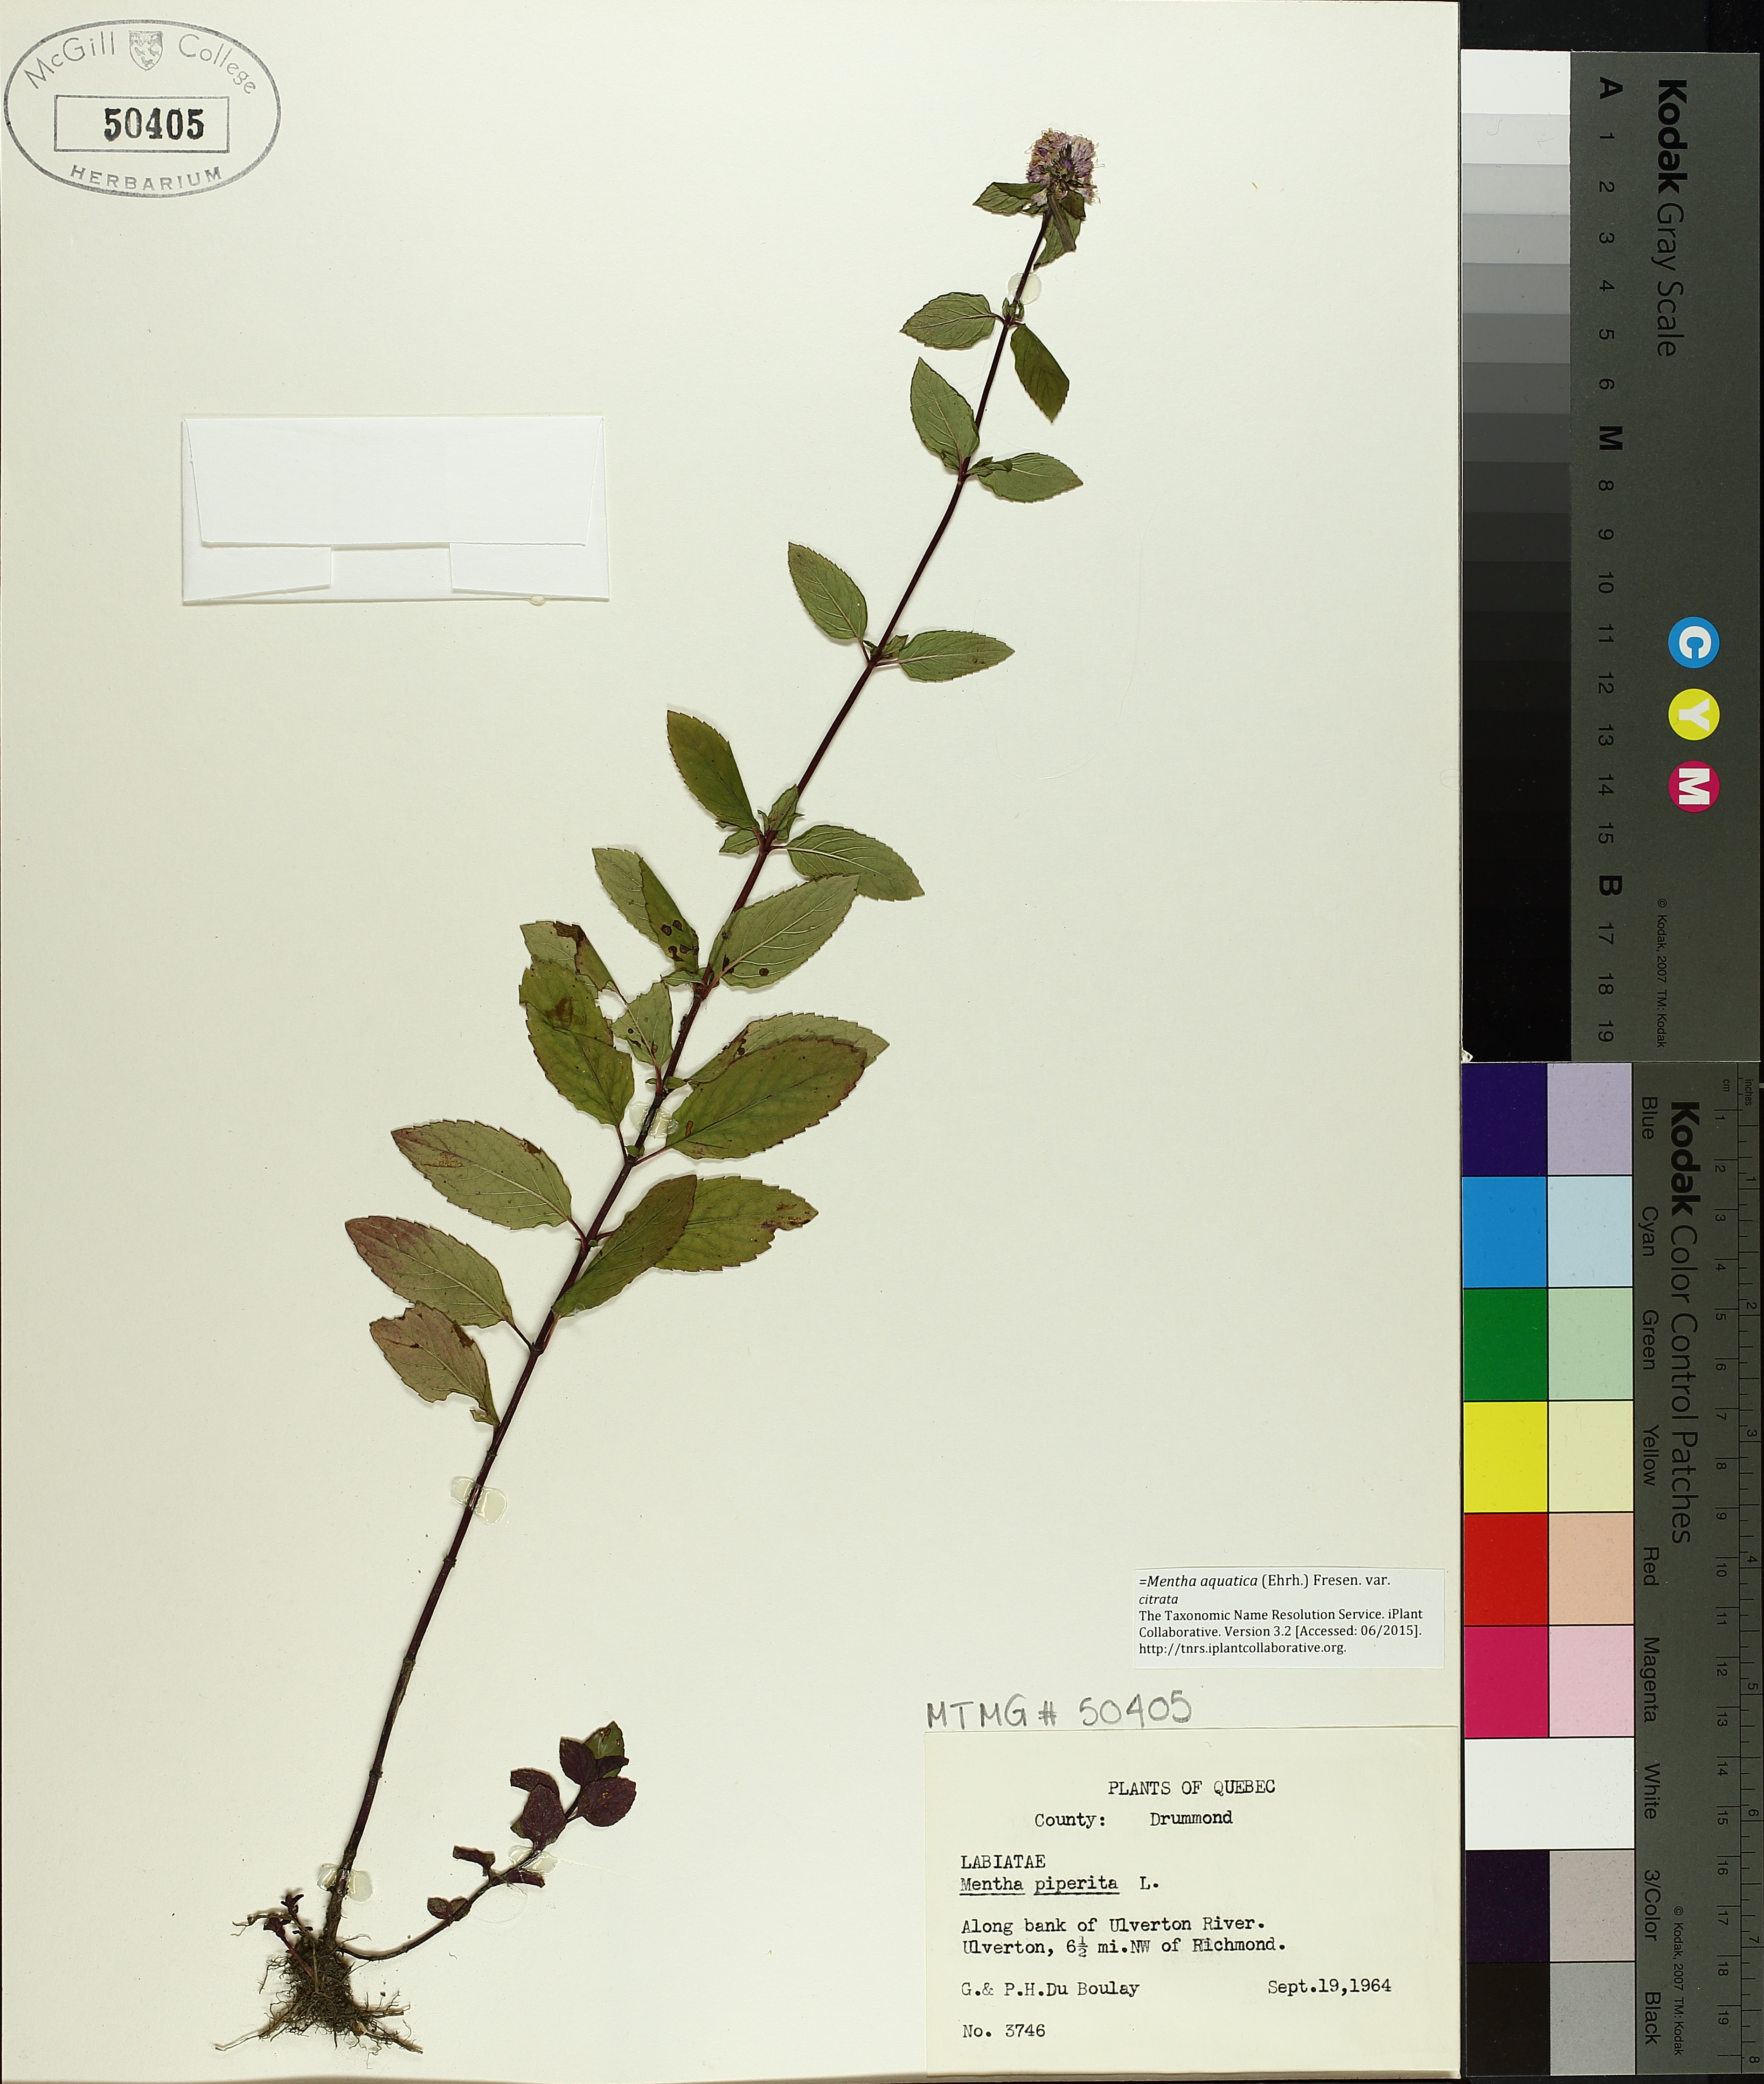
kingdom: Plantae
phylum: Tracheophyta
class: Magnoliopsida
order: Lamiales
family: Lamiaceae
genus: Mentha
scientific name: Mentha piperita
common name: Peppermint
